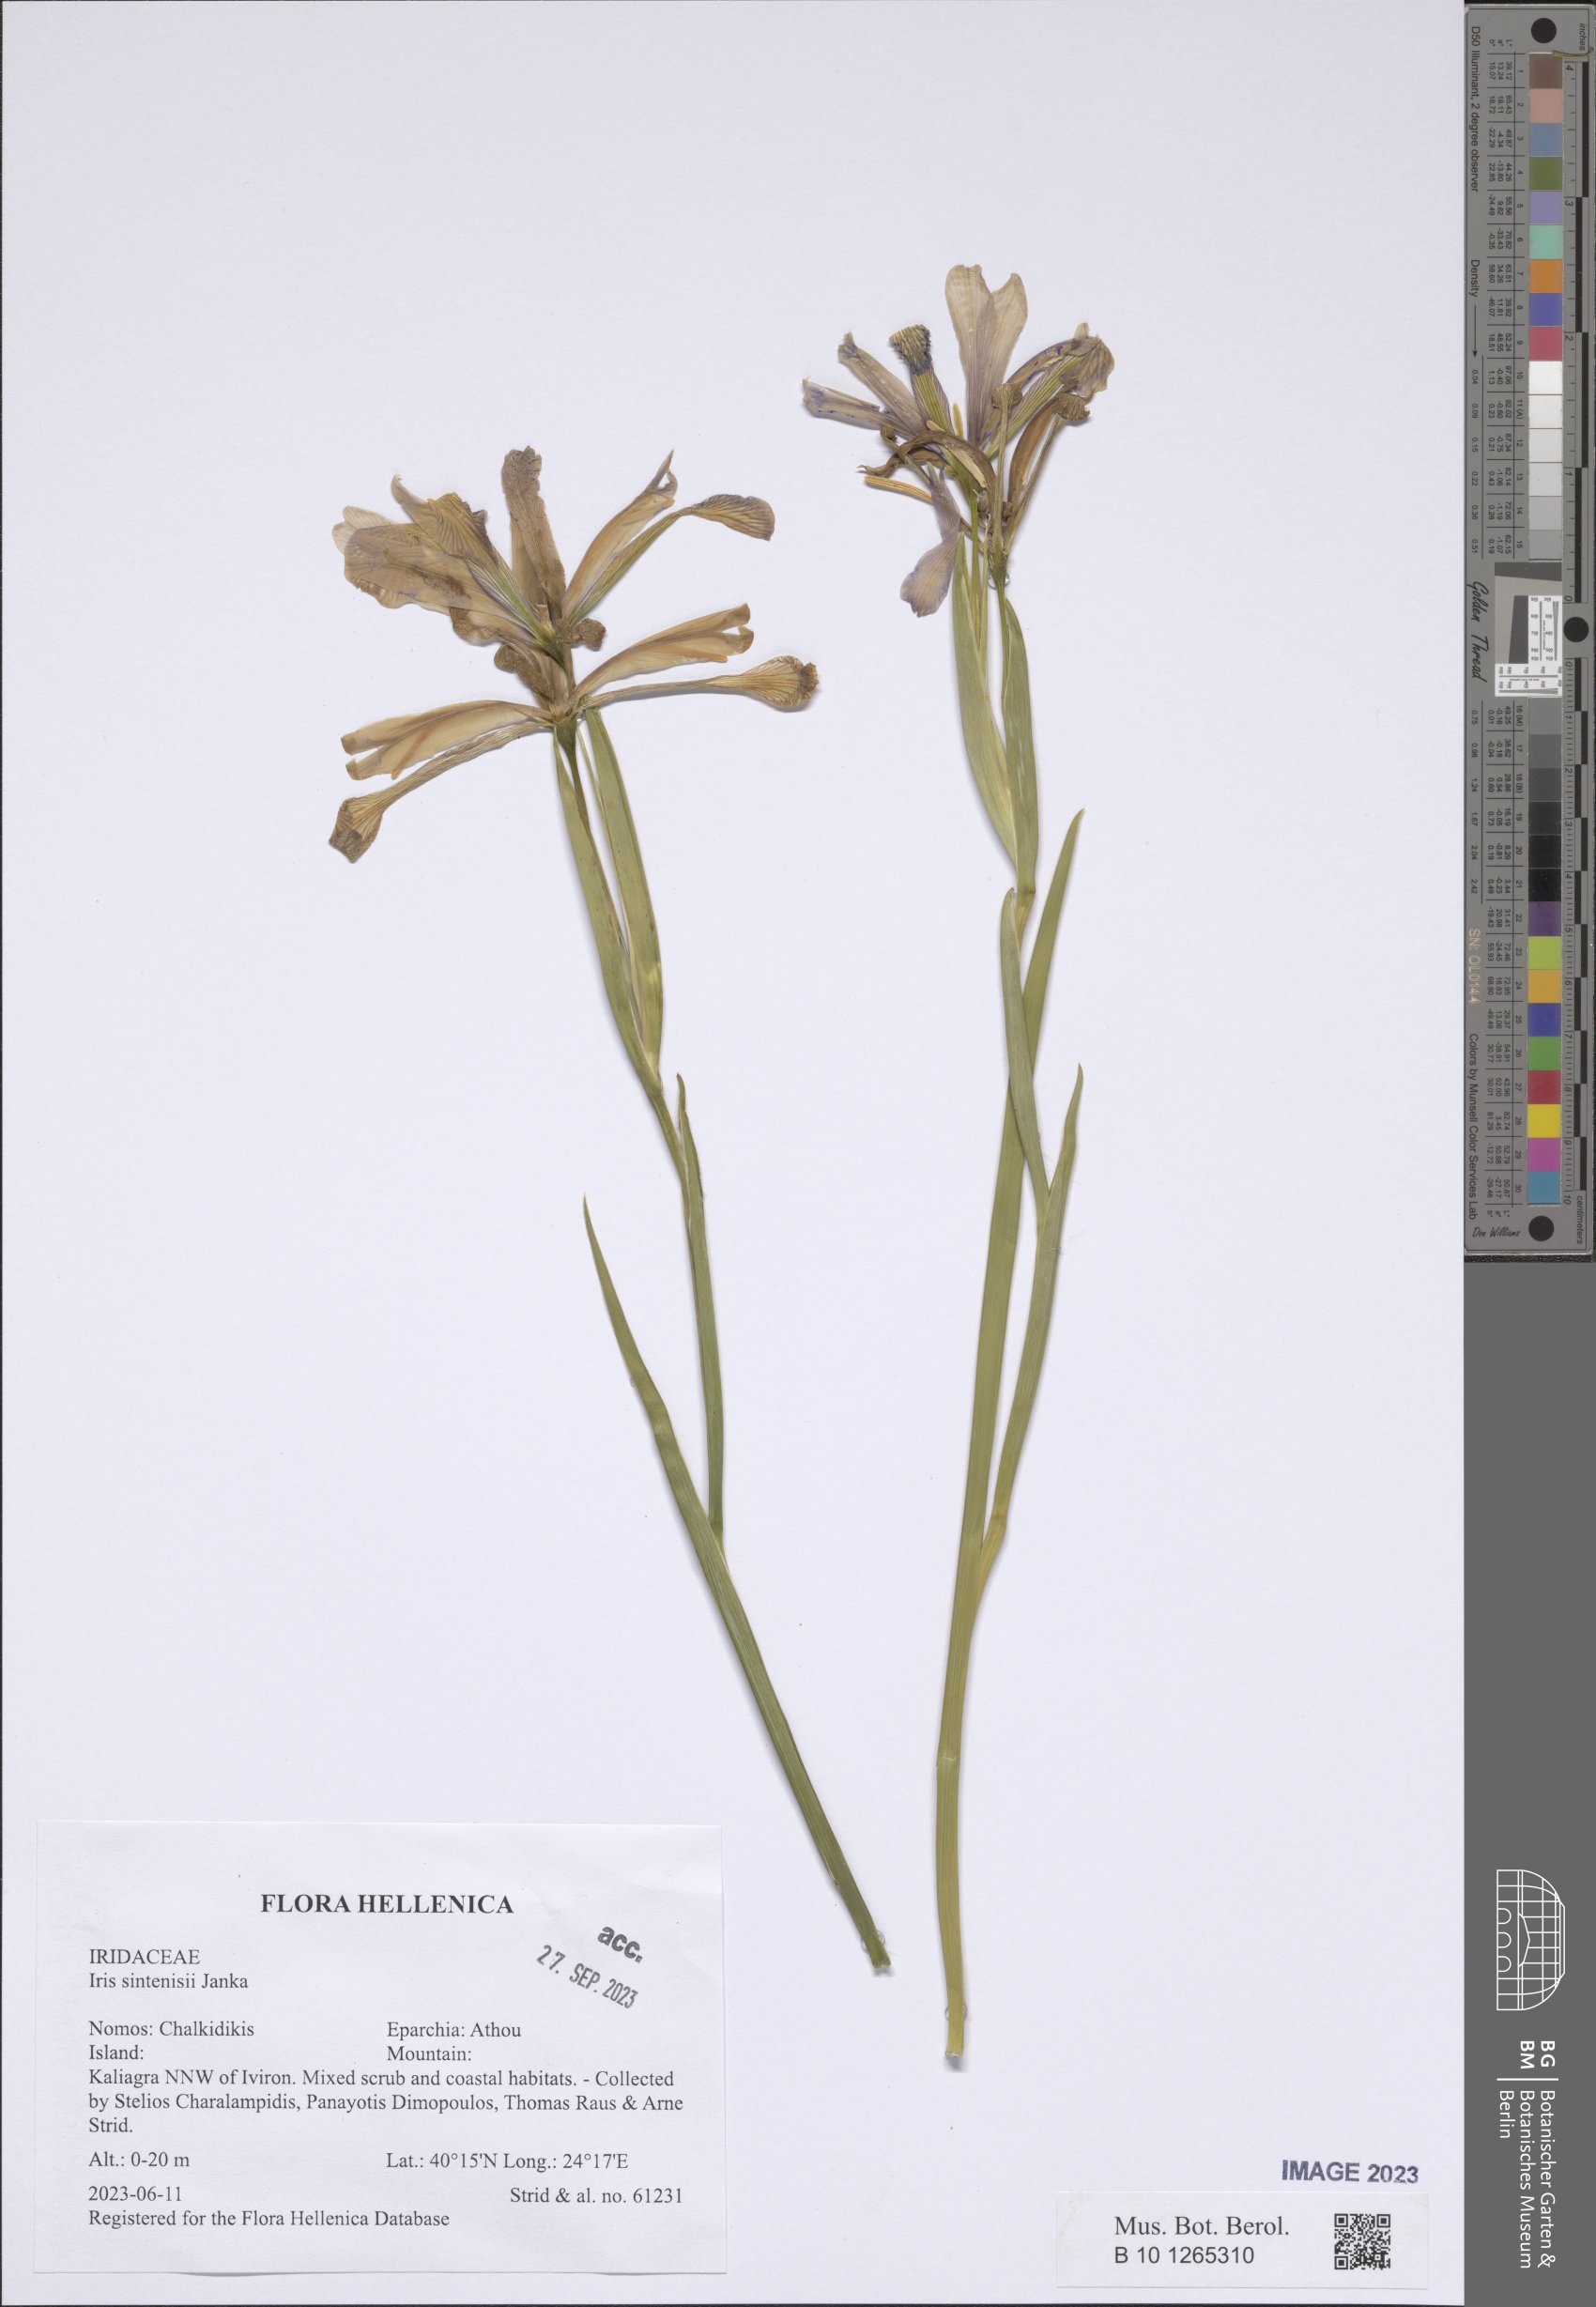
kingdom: Plantae
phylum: Tracheophyta
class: Liliopsida
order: Asparagales
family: Iridaceae
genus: Iris
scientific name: Iris sintenisii
